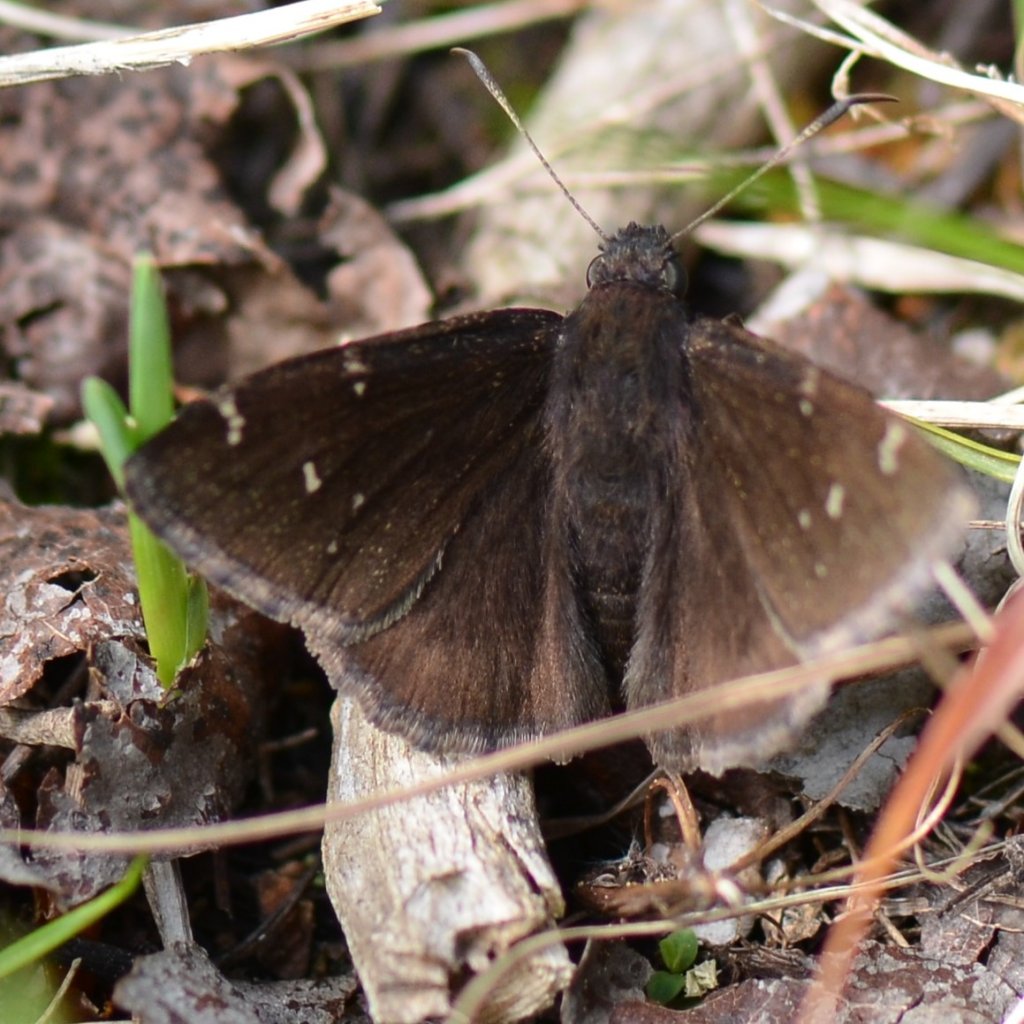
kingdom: Animalia
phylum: Arthropoda
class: Insecta
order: Lepidoptera
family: Hesperiidae
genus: Autochton
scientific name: Autochton
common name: Northern Cloudywing
